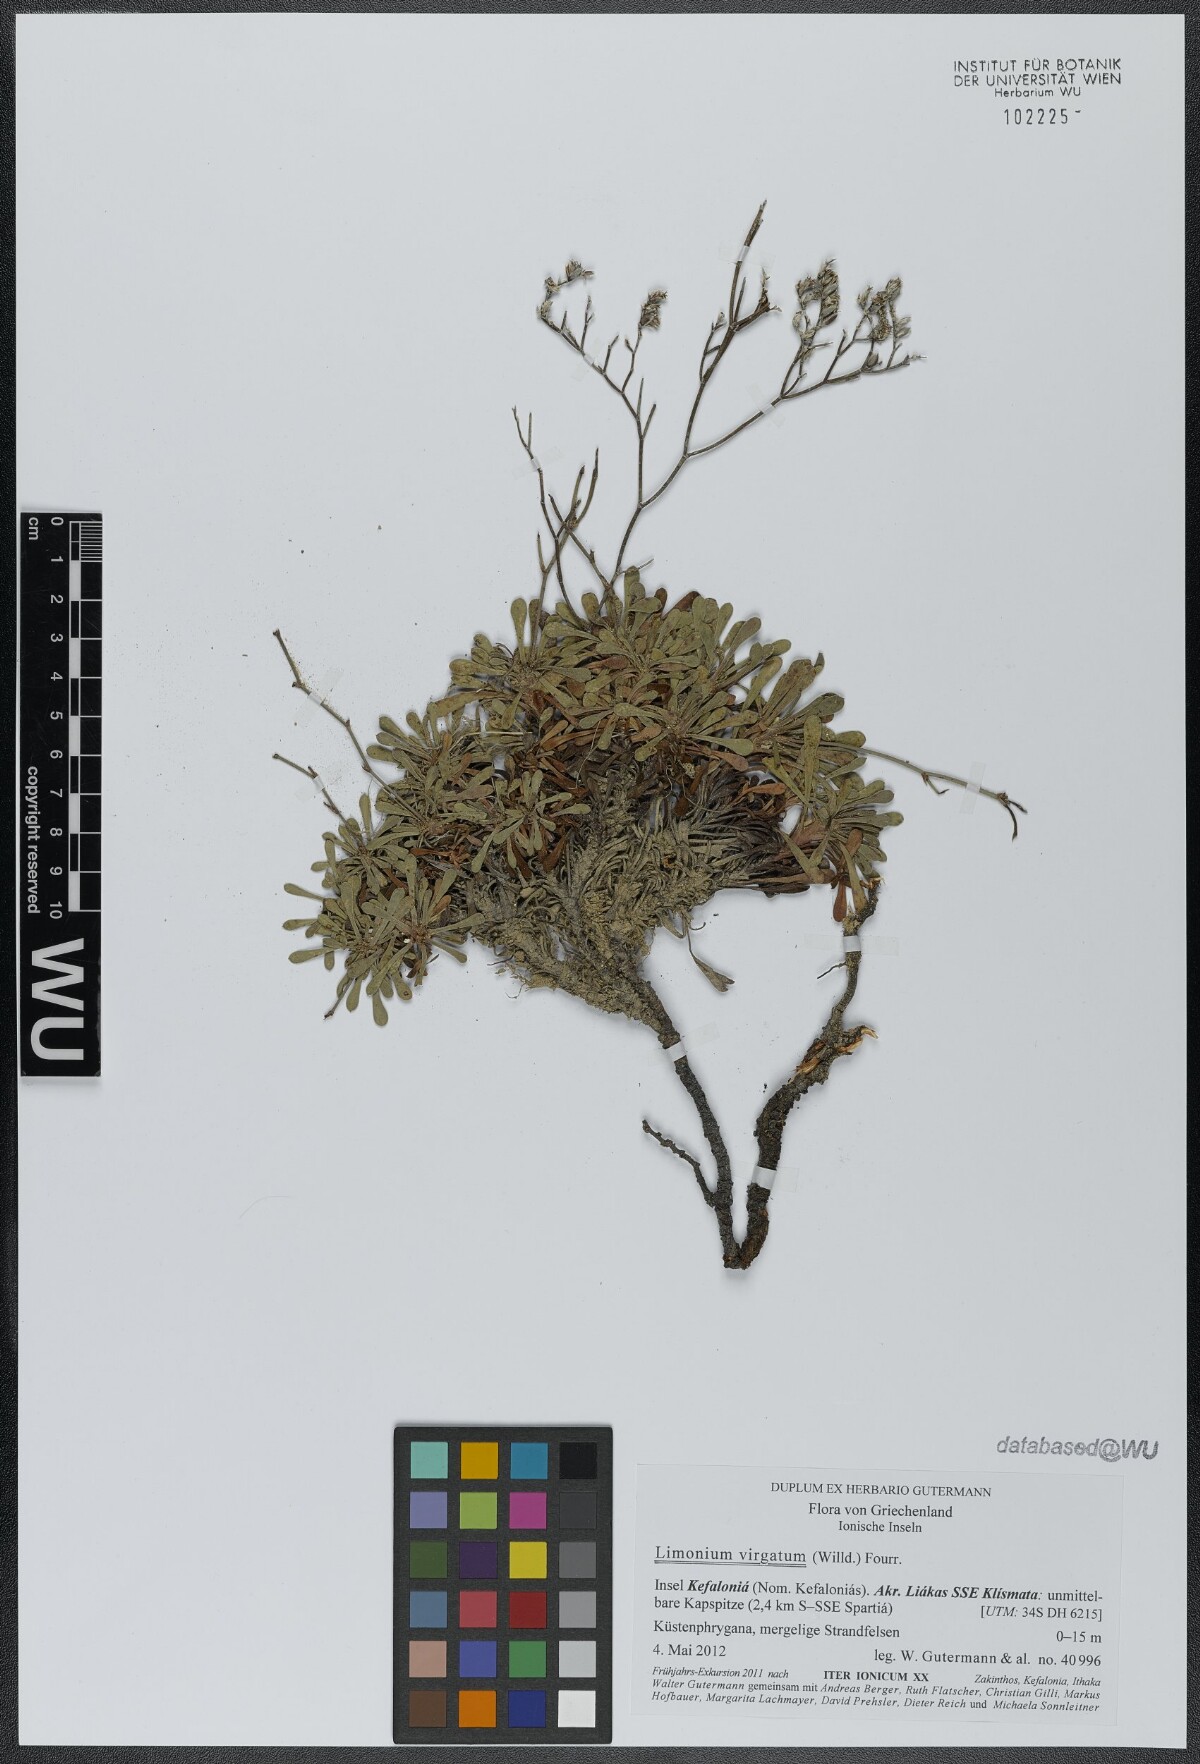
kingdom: Plantae
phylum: Tracheophyta
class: Magnoliopsida
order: Caryophyllales
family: Plumbaginaceae
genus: Limonium
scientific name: Limonium virgatum
